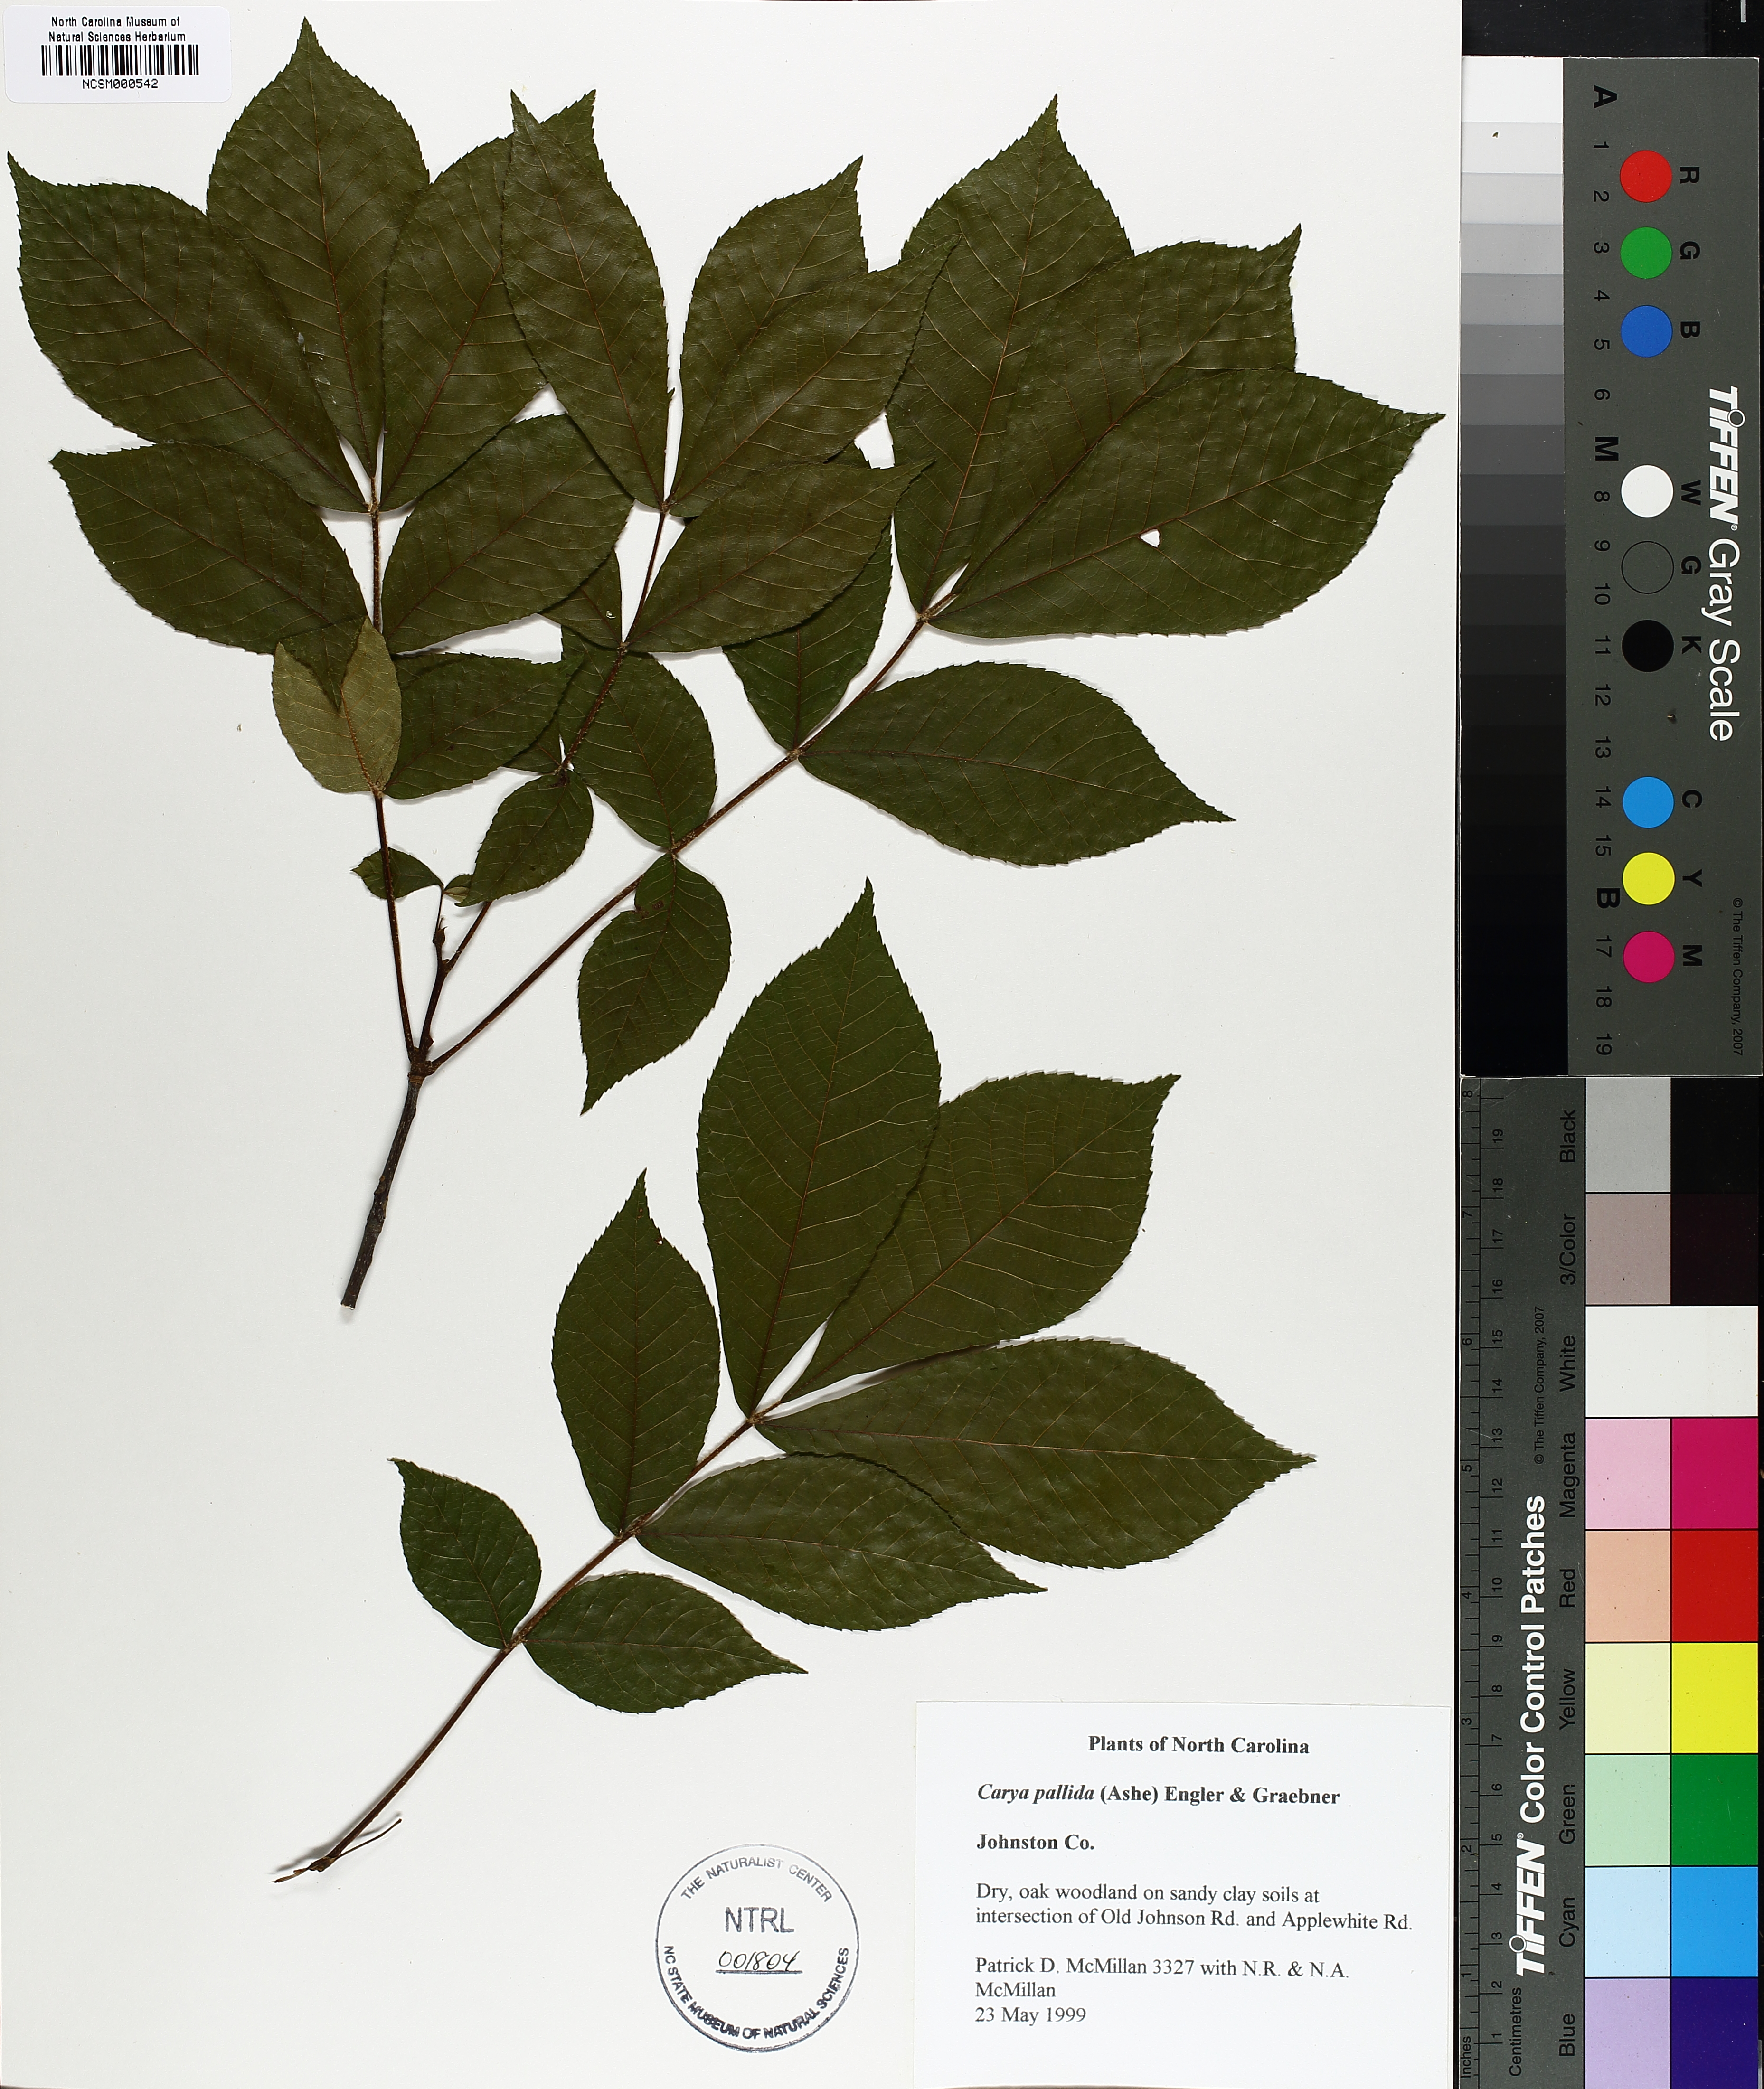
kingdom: Plantae
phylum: Tracheophyta
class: Magnoliopsida
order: Fagales
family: Juglandaceae
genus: Carya
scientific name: Carya pallida
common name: Sand hickory
